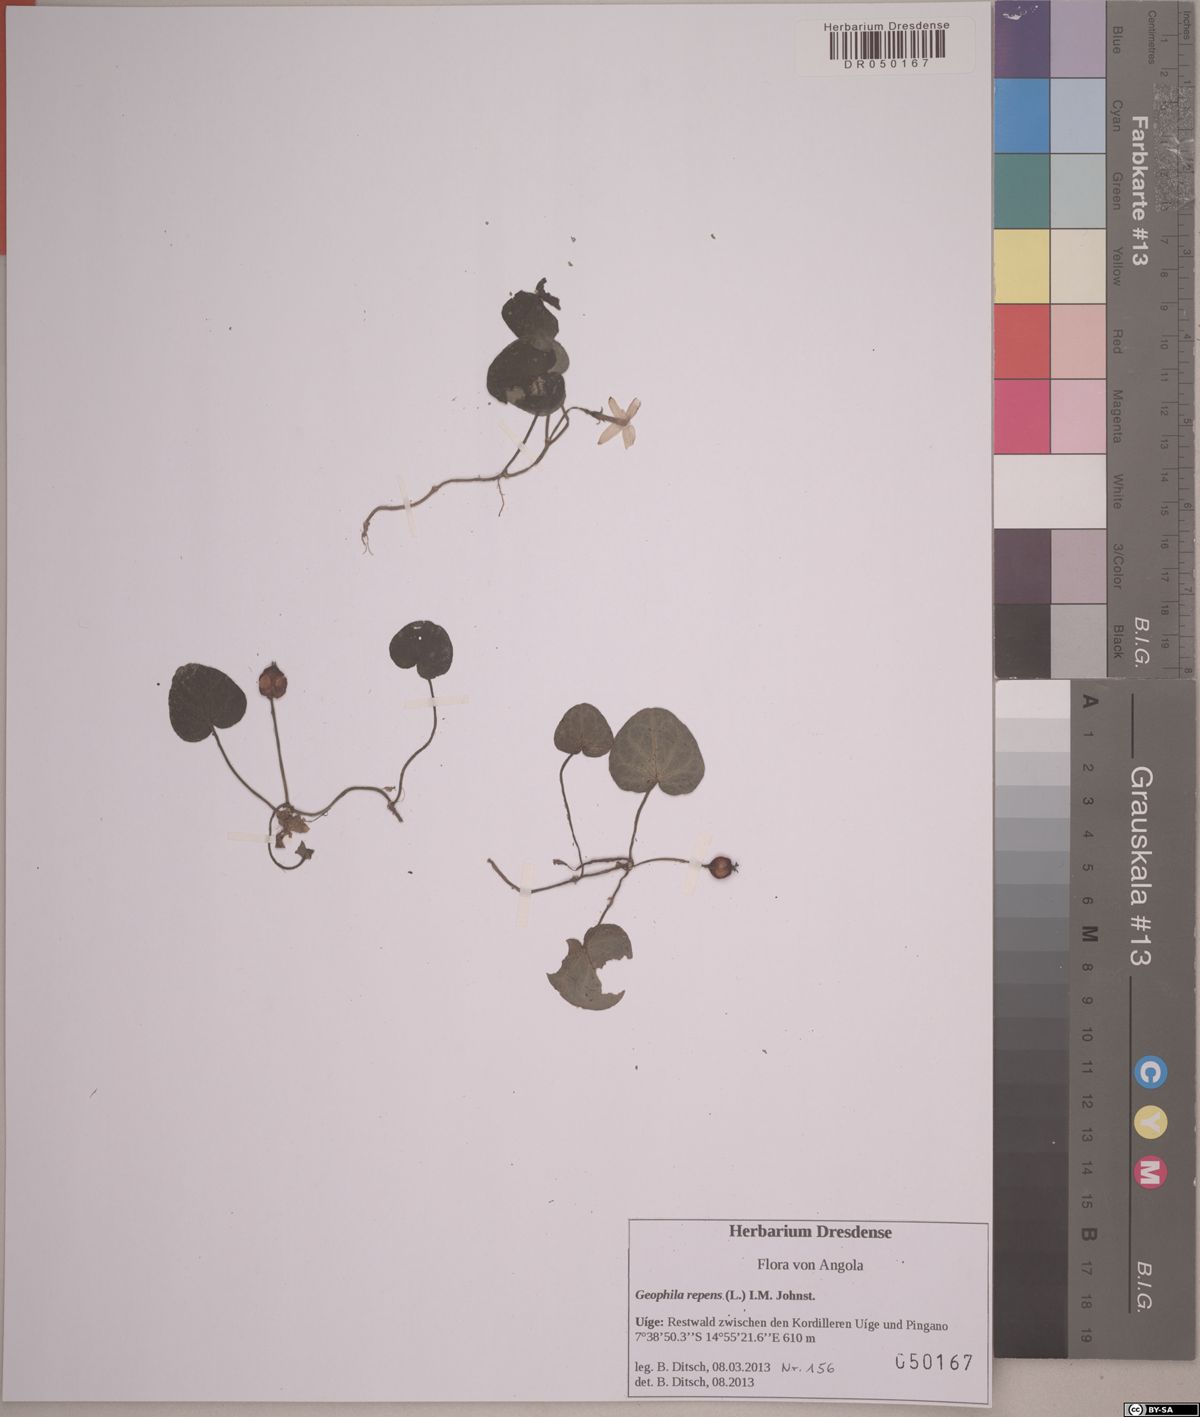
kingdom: Plantae
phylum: Tracheophyta
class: Magnoliopsida
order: Gentianales
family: Rubiaceae
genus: Geophila
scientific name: Geophila repens
